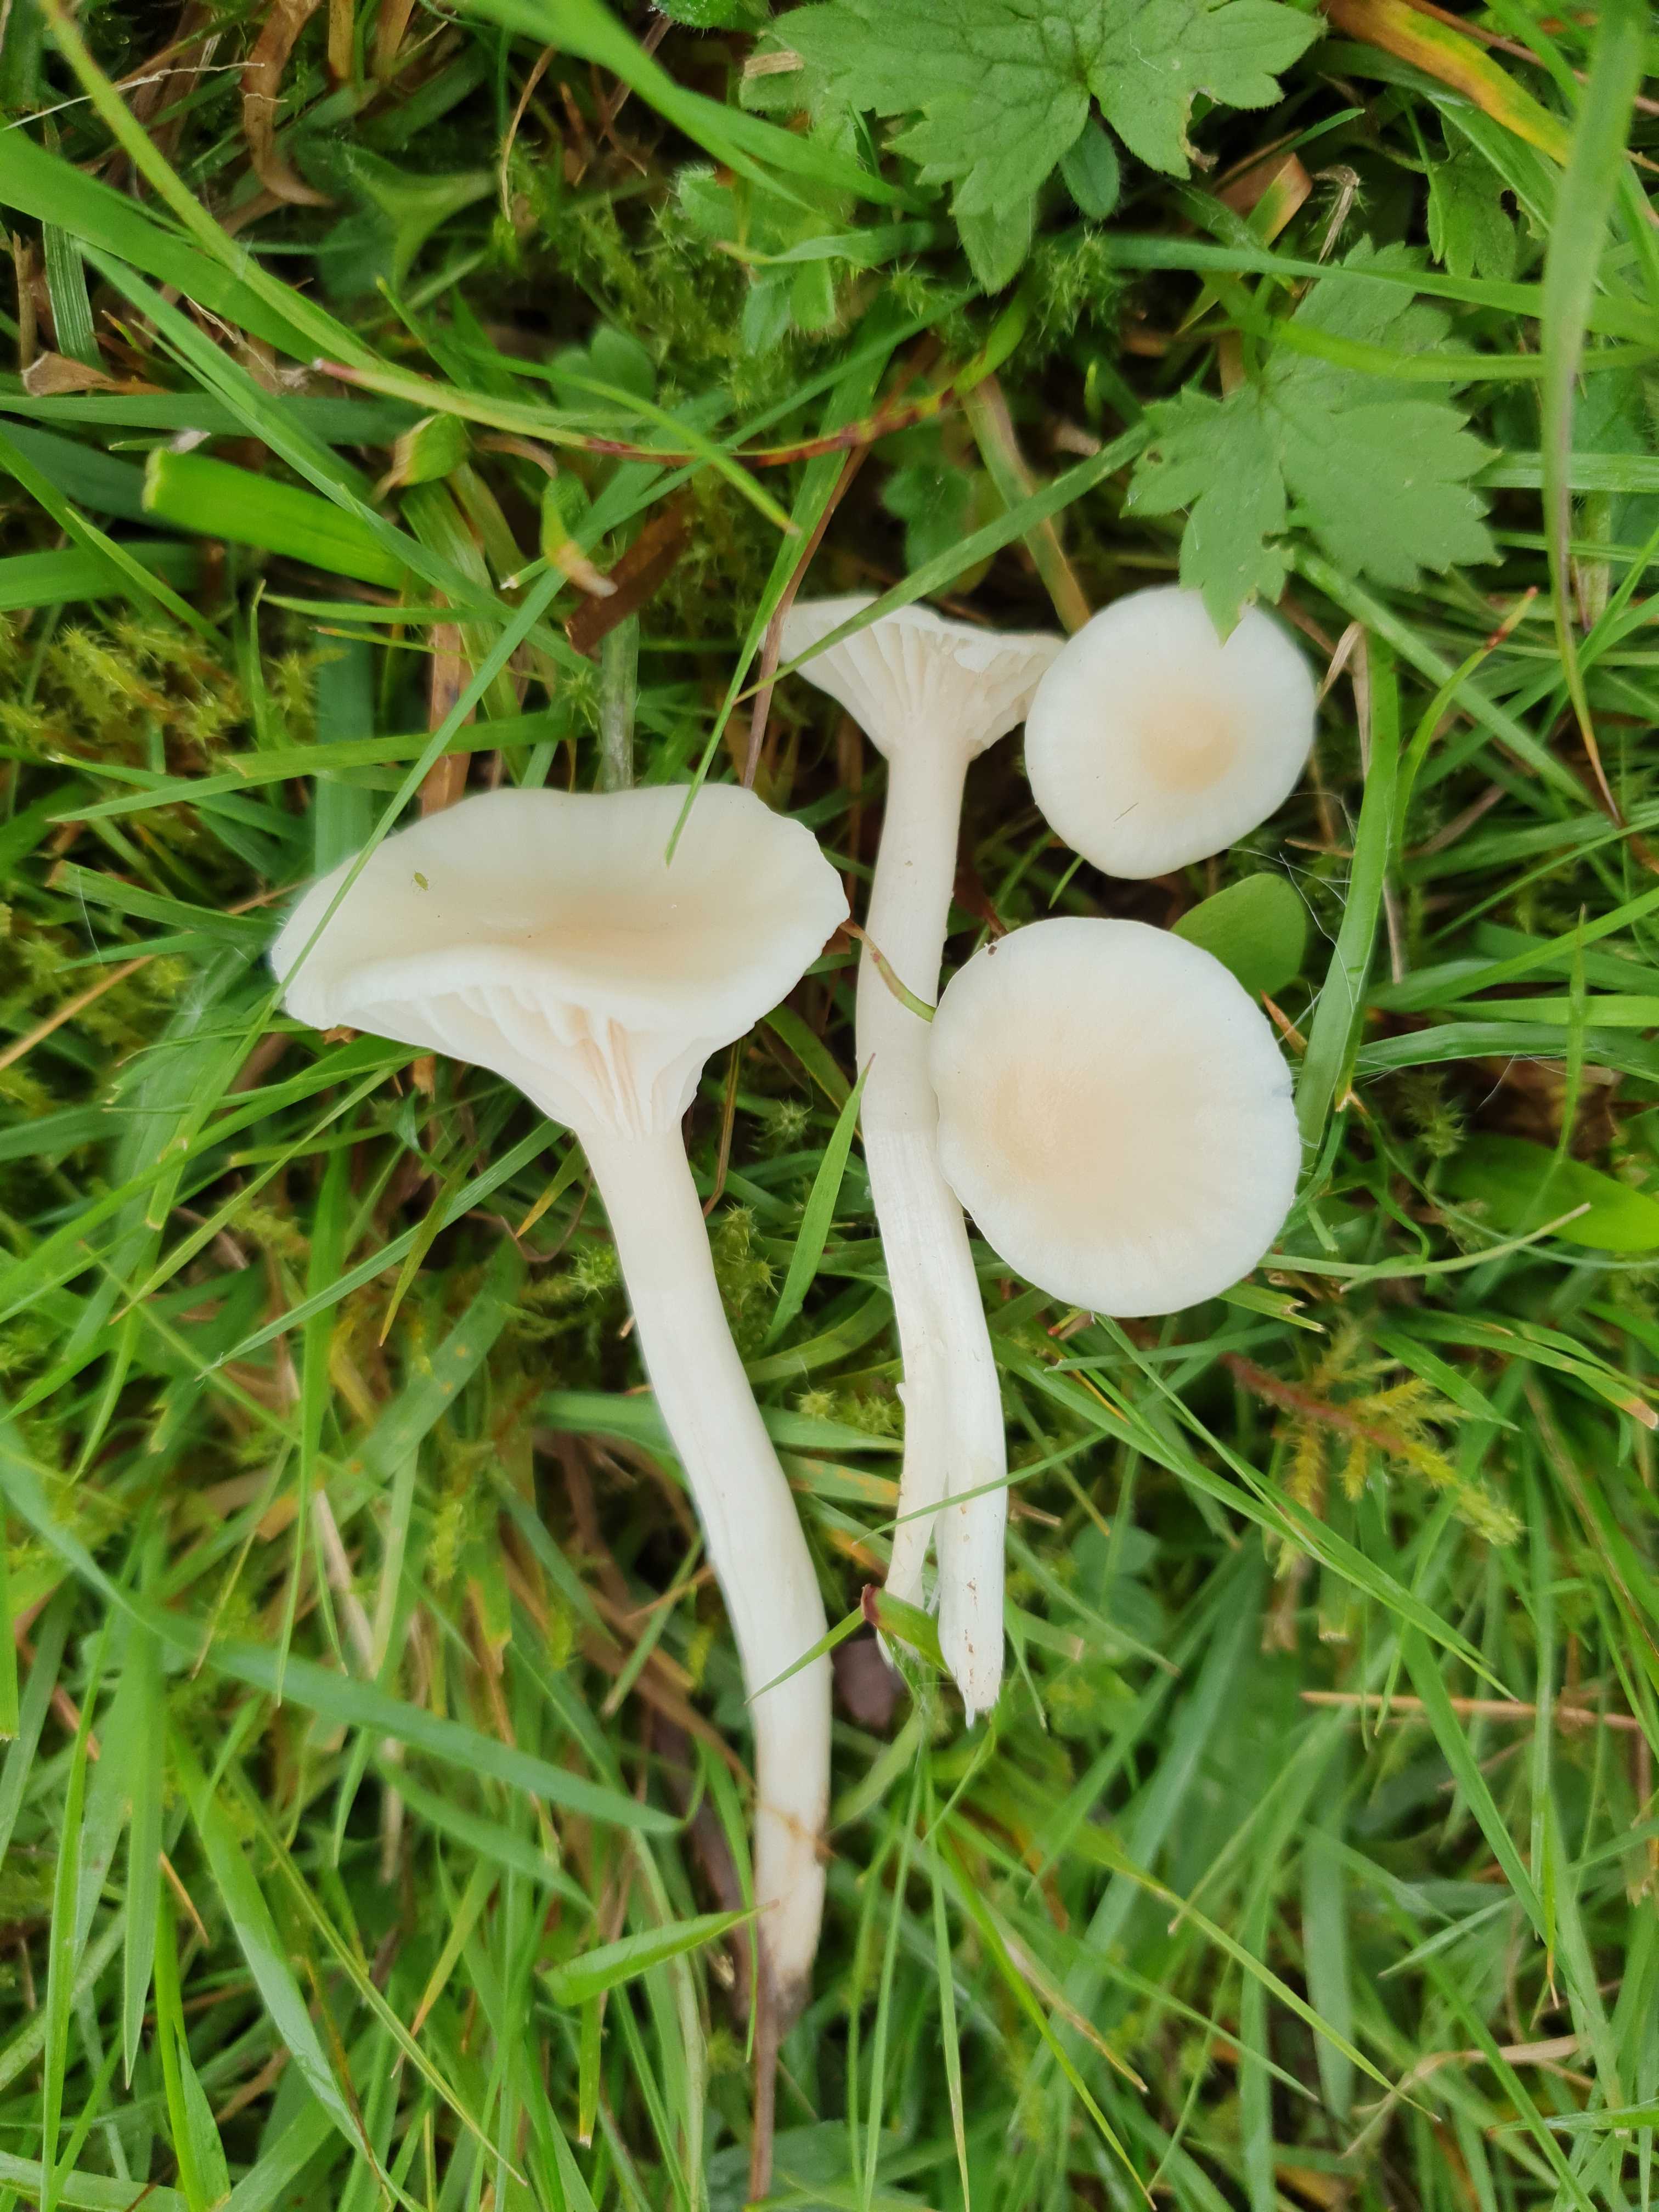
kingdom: Fungi
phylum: Basidiomycota
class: Agaricomycetes
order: Agaricales
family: Hygrophoraceae
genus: Cuphophyllus
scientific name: Cuphophyllus russocoriaceus
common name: ruslæder-vokshat
